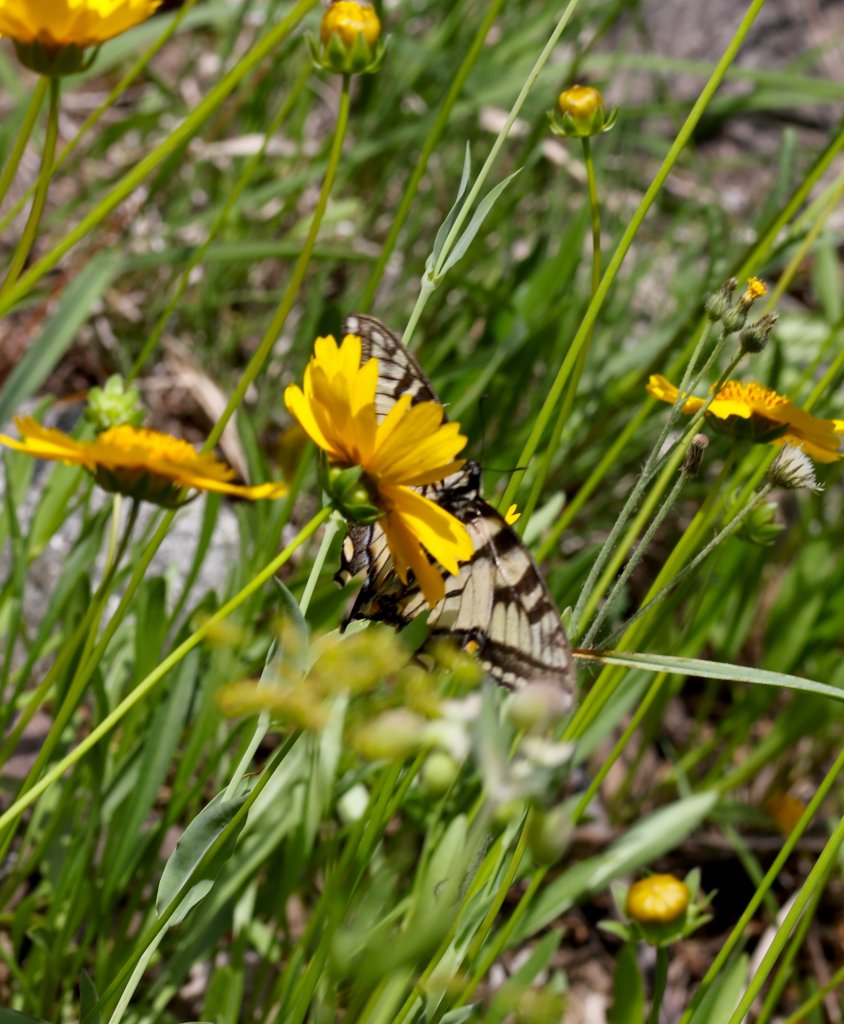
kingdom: Animalia
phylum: Arthropoda
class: Insecta
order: Lepidoptera
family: Papilionidae
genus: Pterourus
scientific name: Pterourus glaucus
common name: Eastern Tiger Swallowtail
